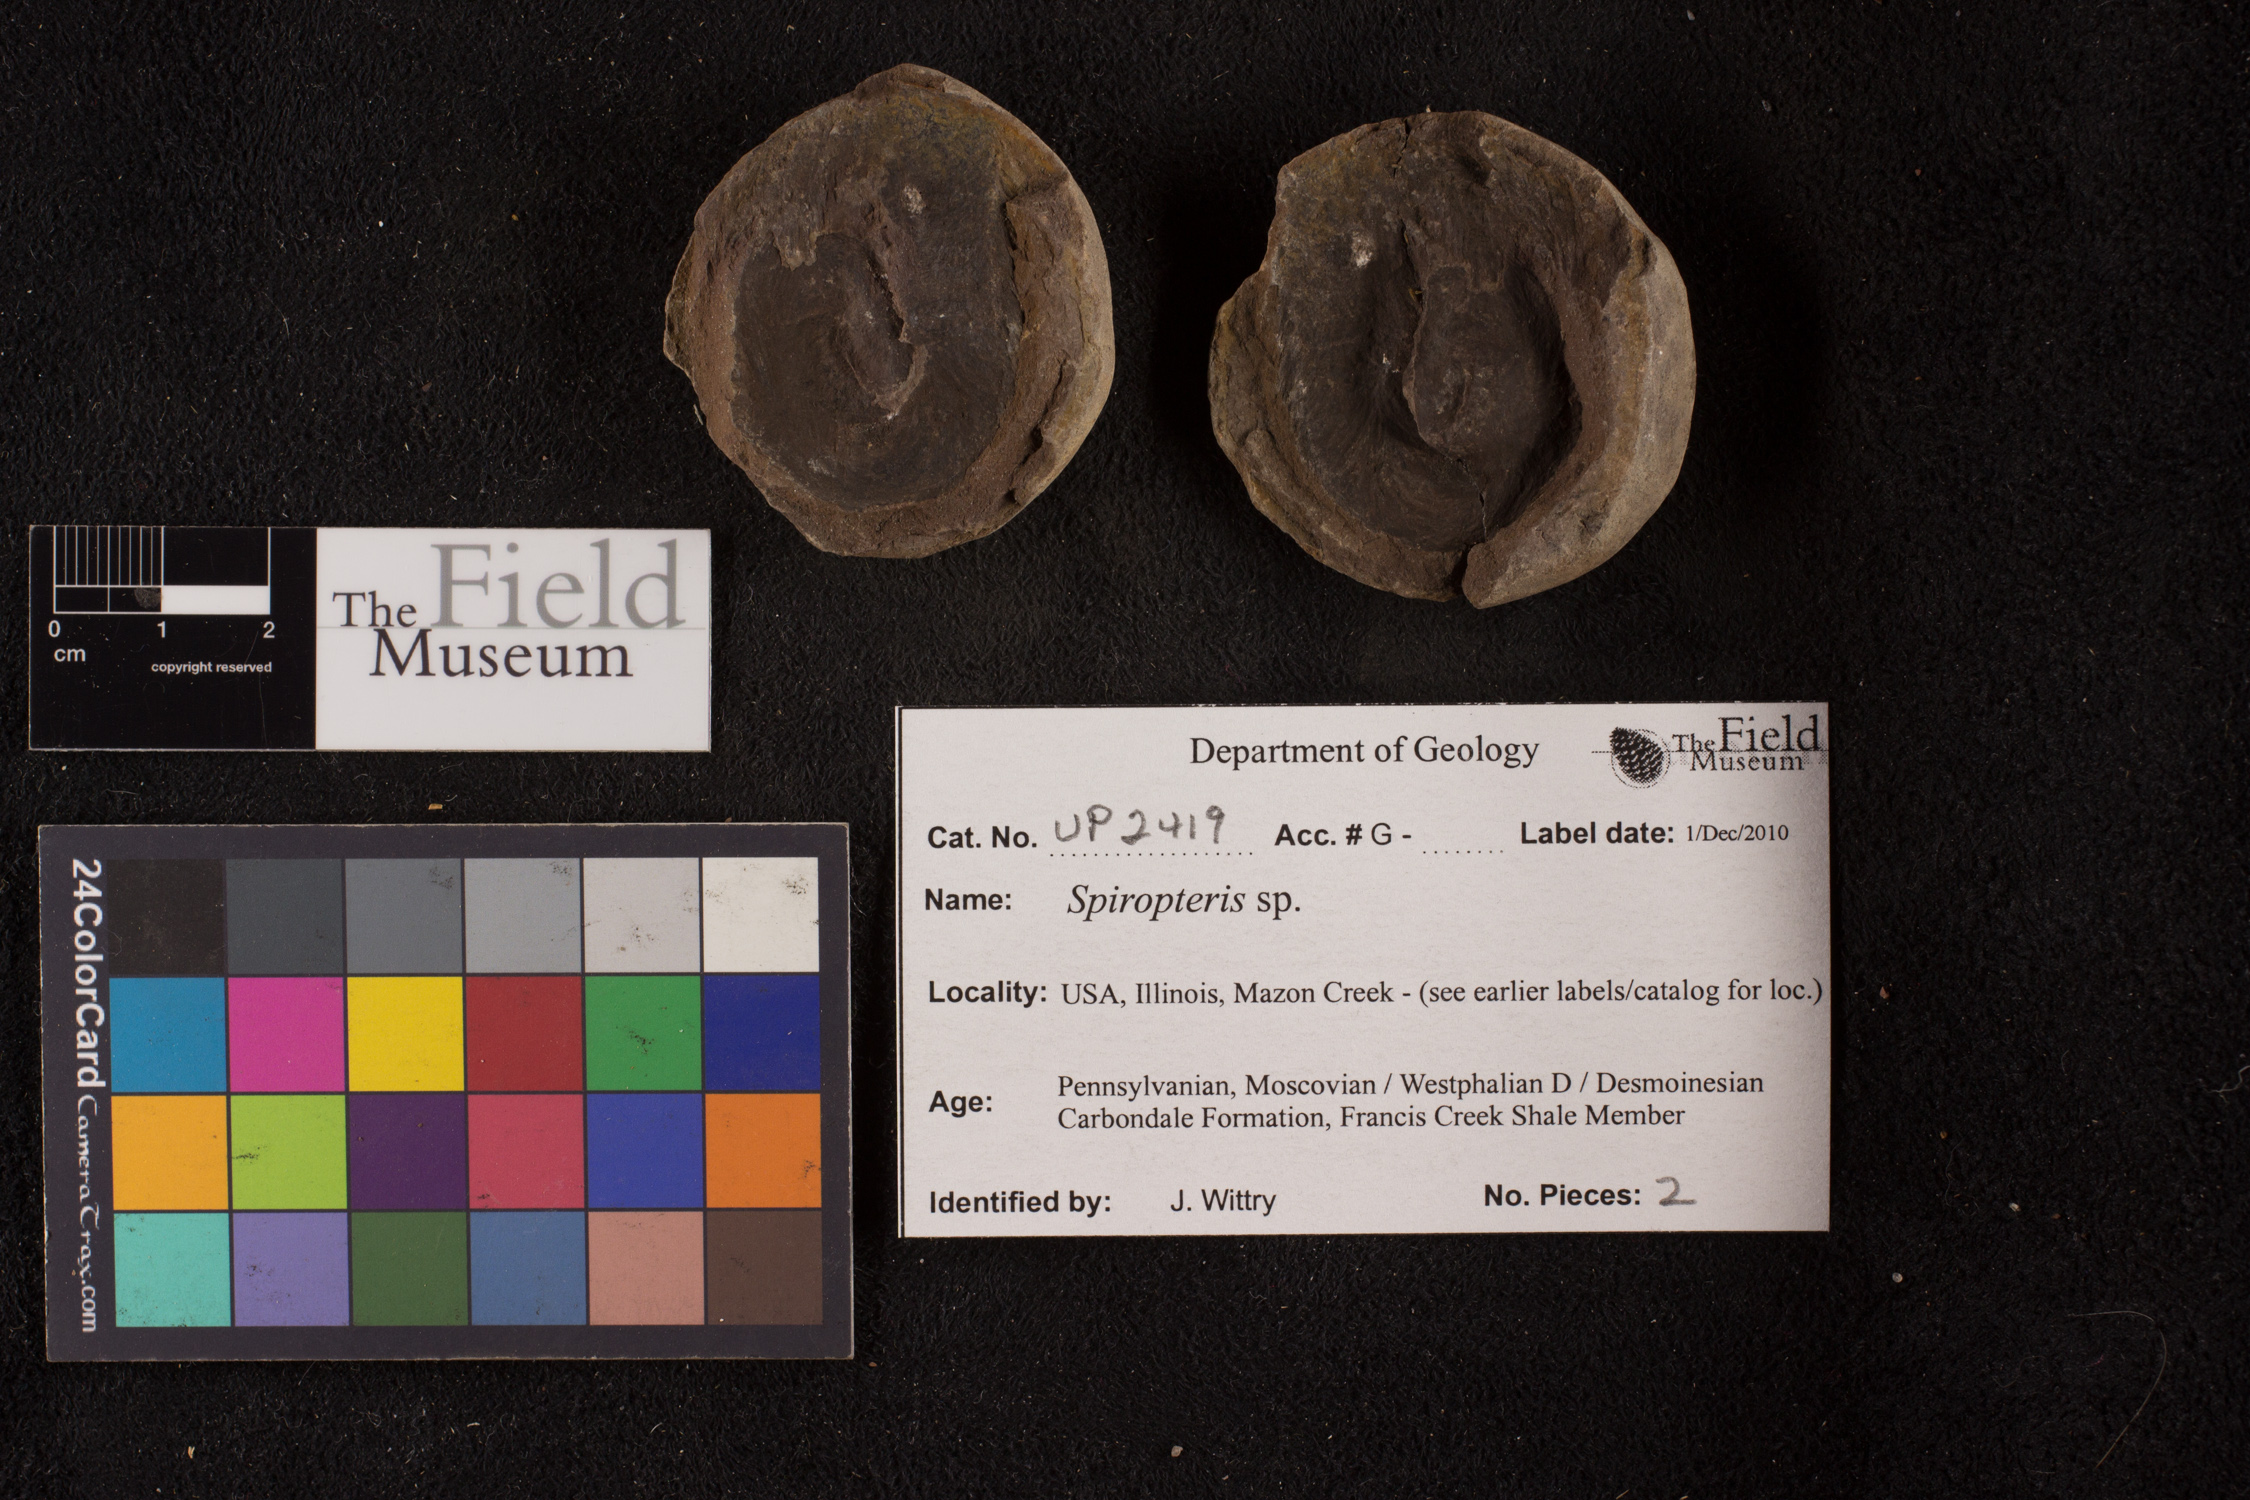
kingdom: Plantae
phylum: Tracheophyta
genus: Spiropteris
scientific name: Spiropteris
